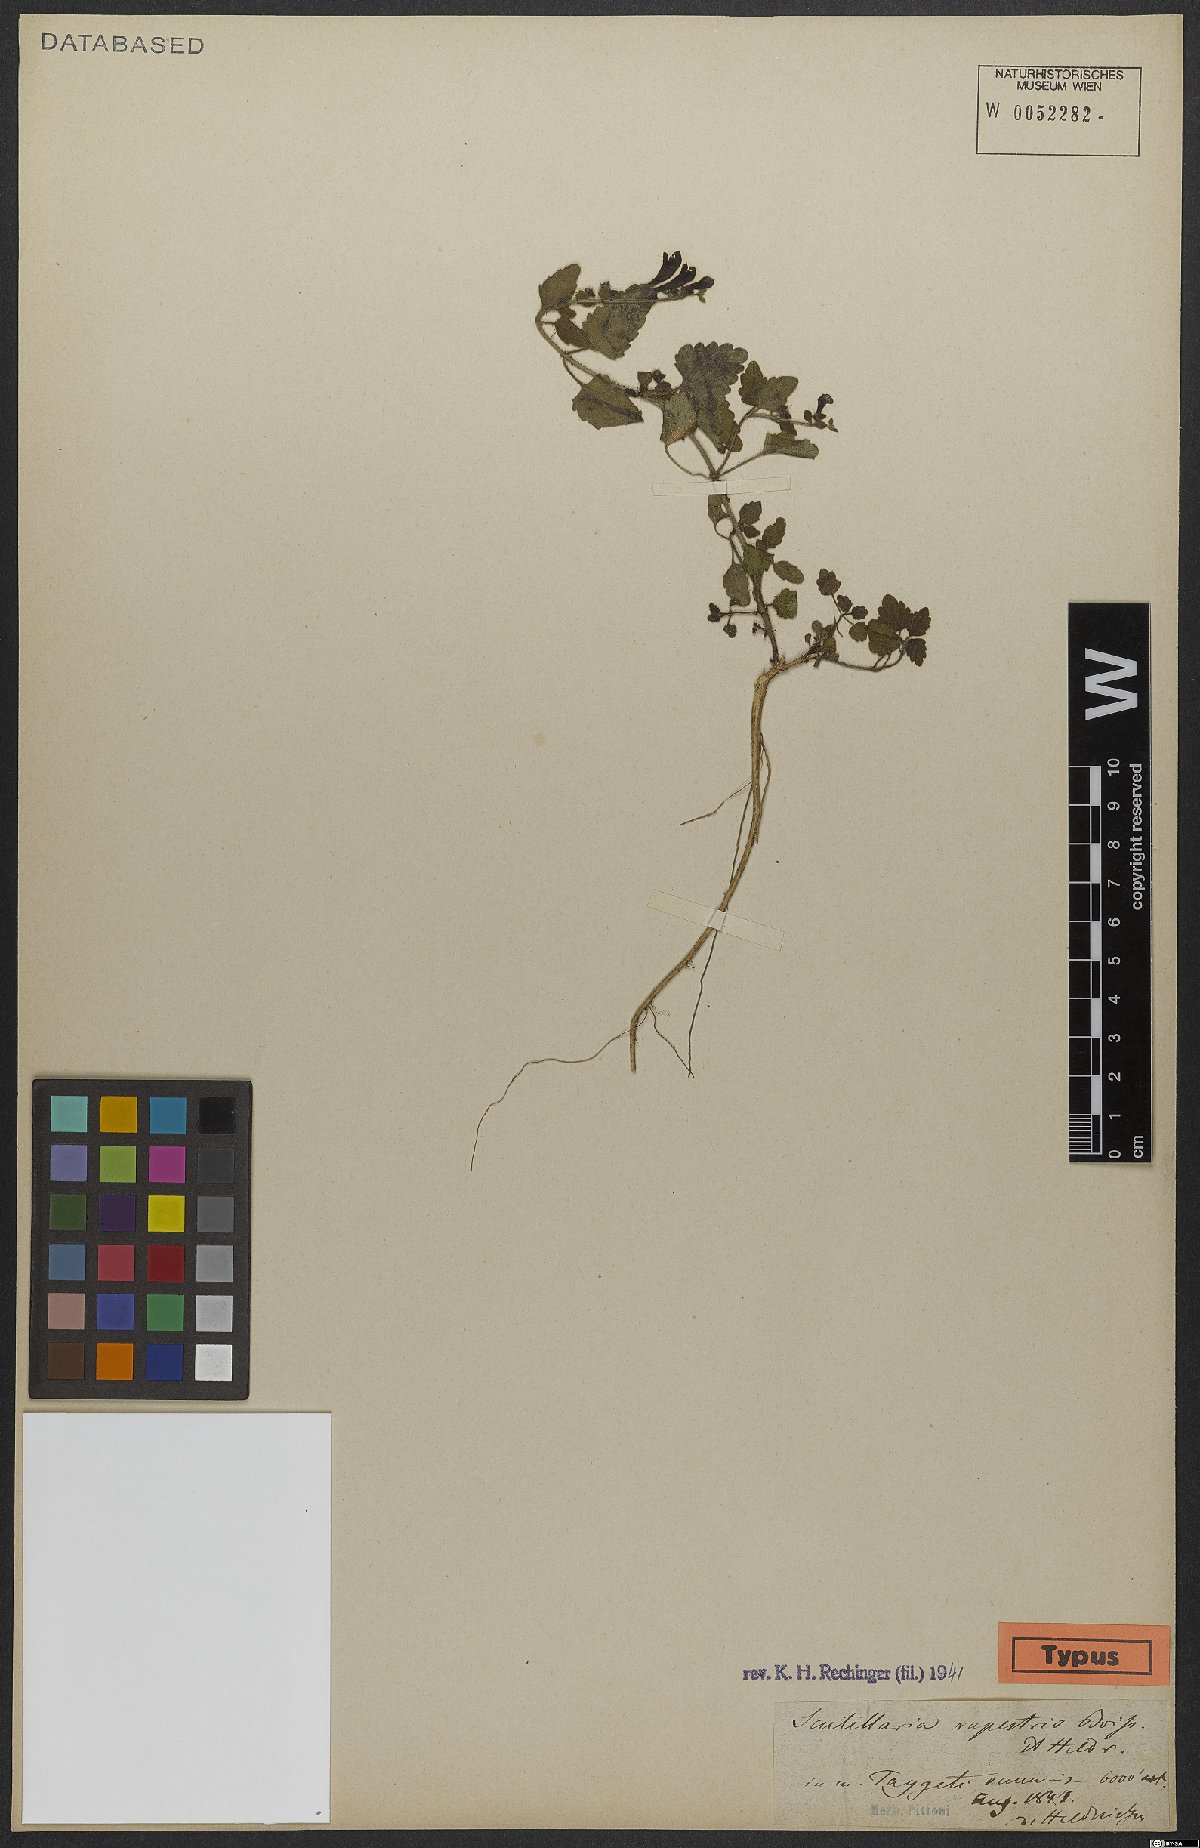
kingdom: Plantae
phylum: Tracheophyta
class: Magnoliopsida
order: Lamiales
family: Lamiaceae
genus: Scutellaria
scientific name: Scutellaria rupestris
